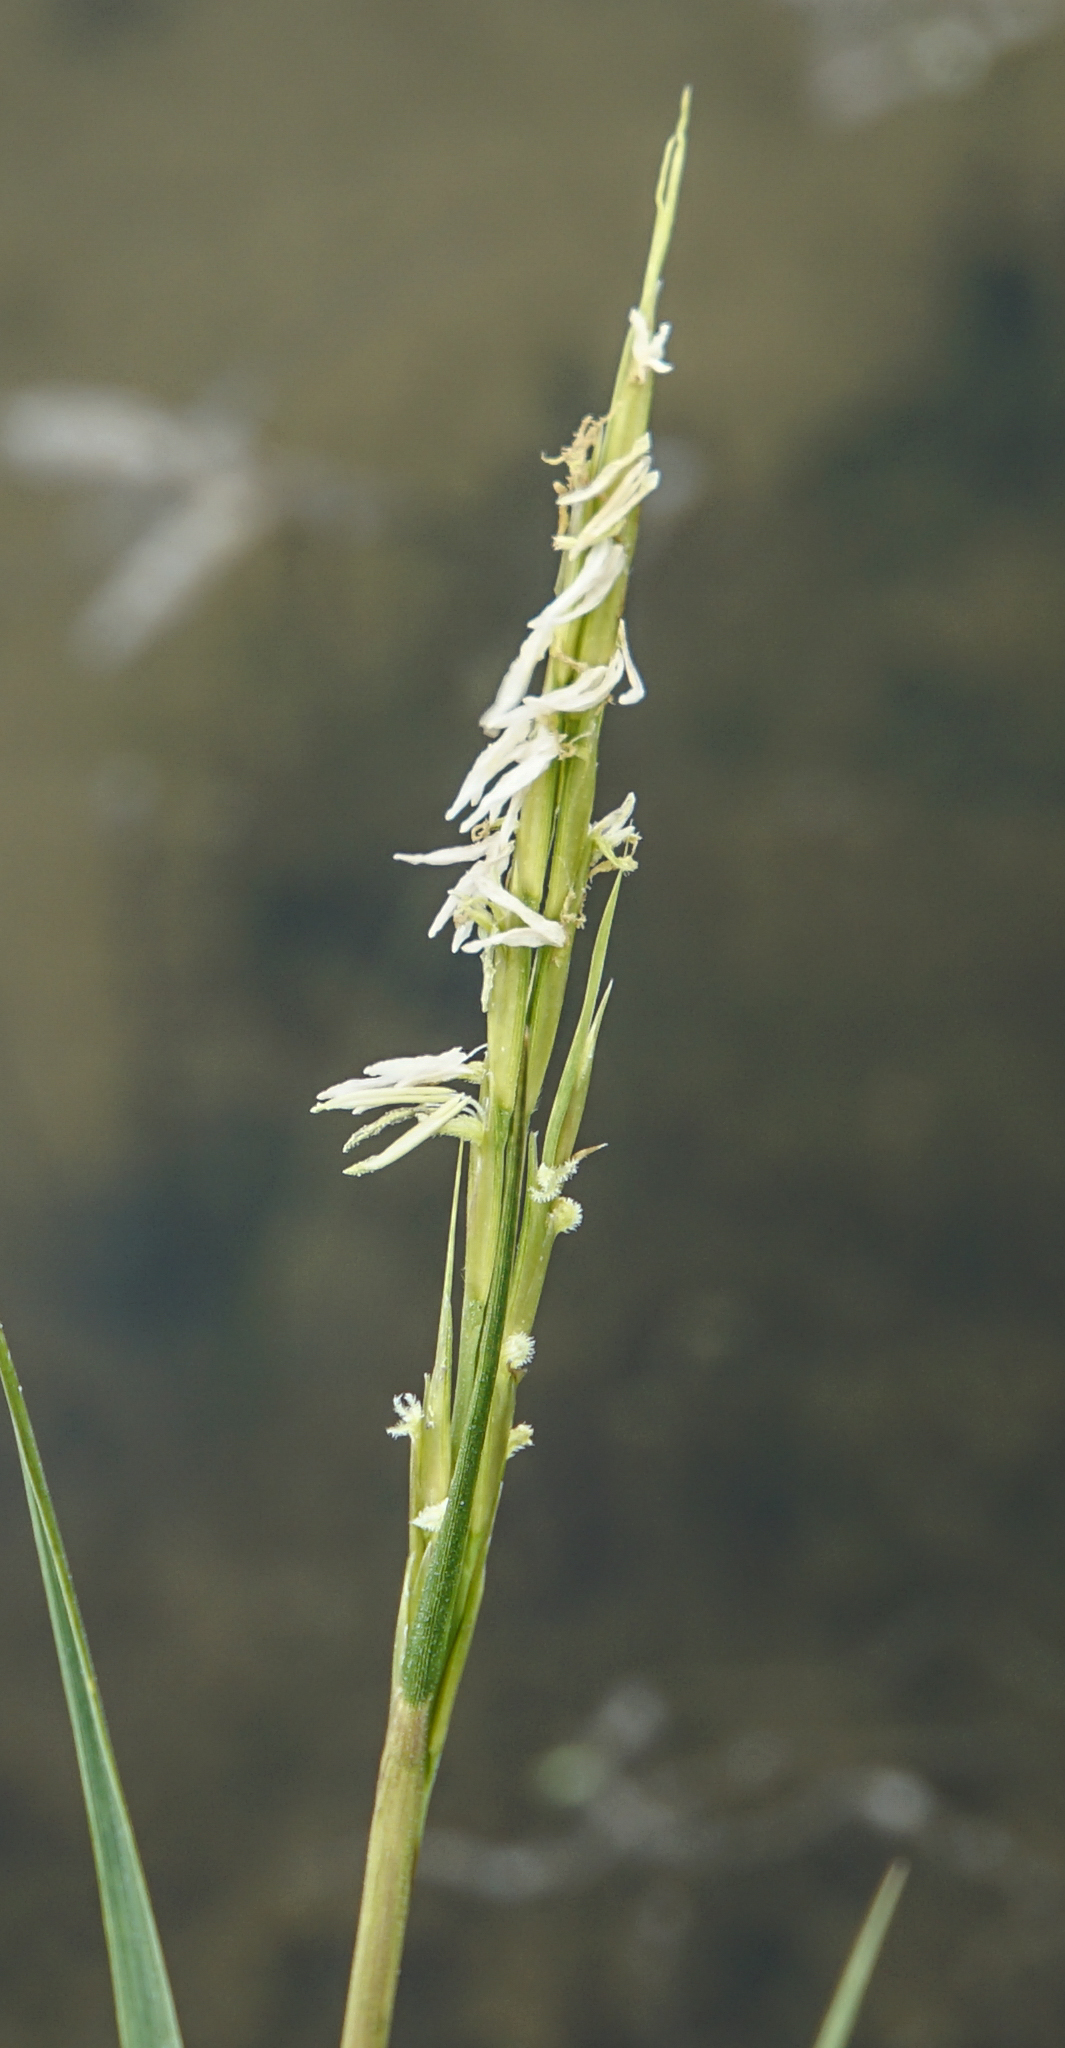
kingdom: Plantae
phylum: Tracheophyta
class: Liliopsida
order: Poales
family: Poaceae
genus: Sporobolus
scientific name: Sporobolus anglicus
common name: English cordgrass
